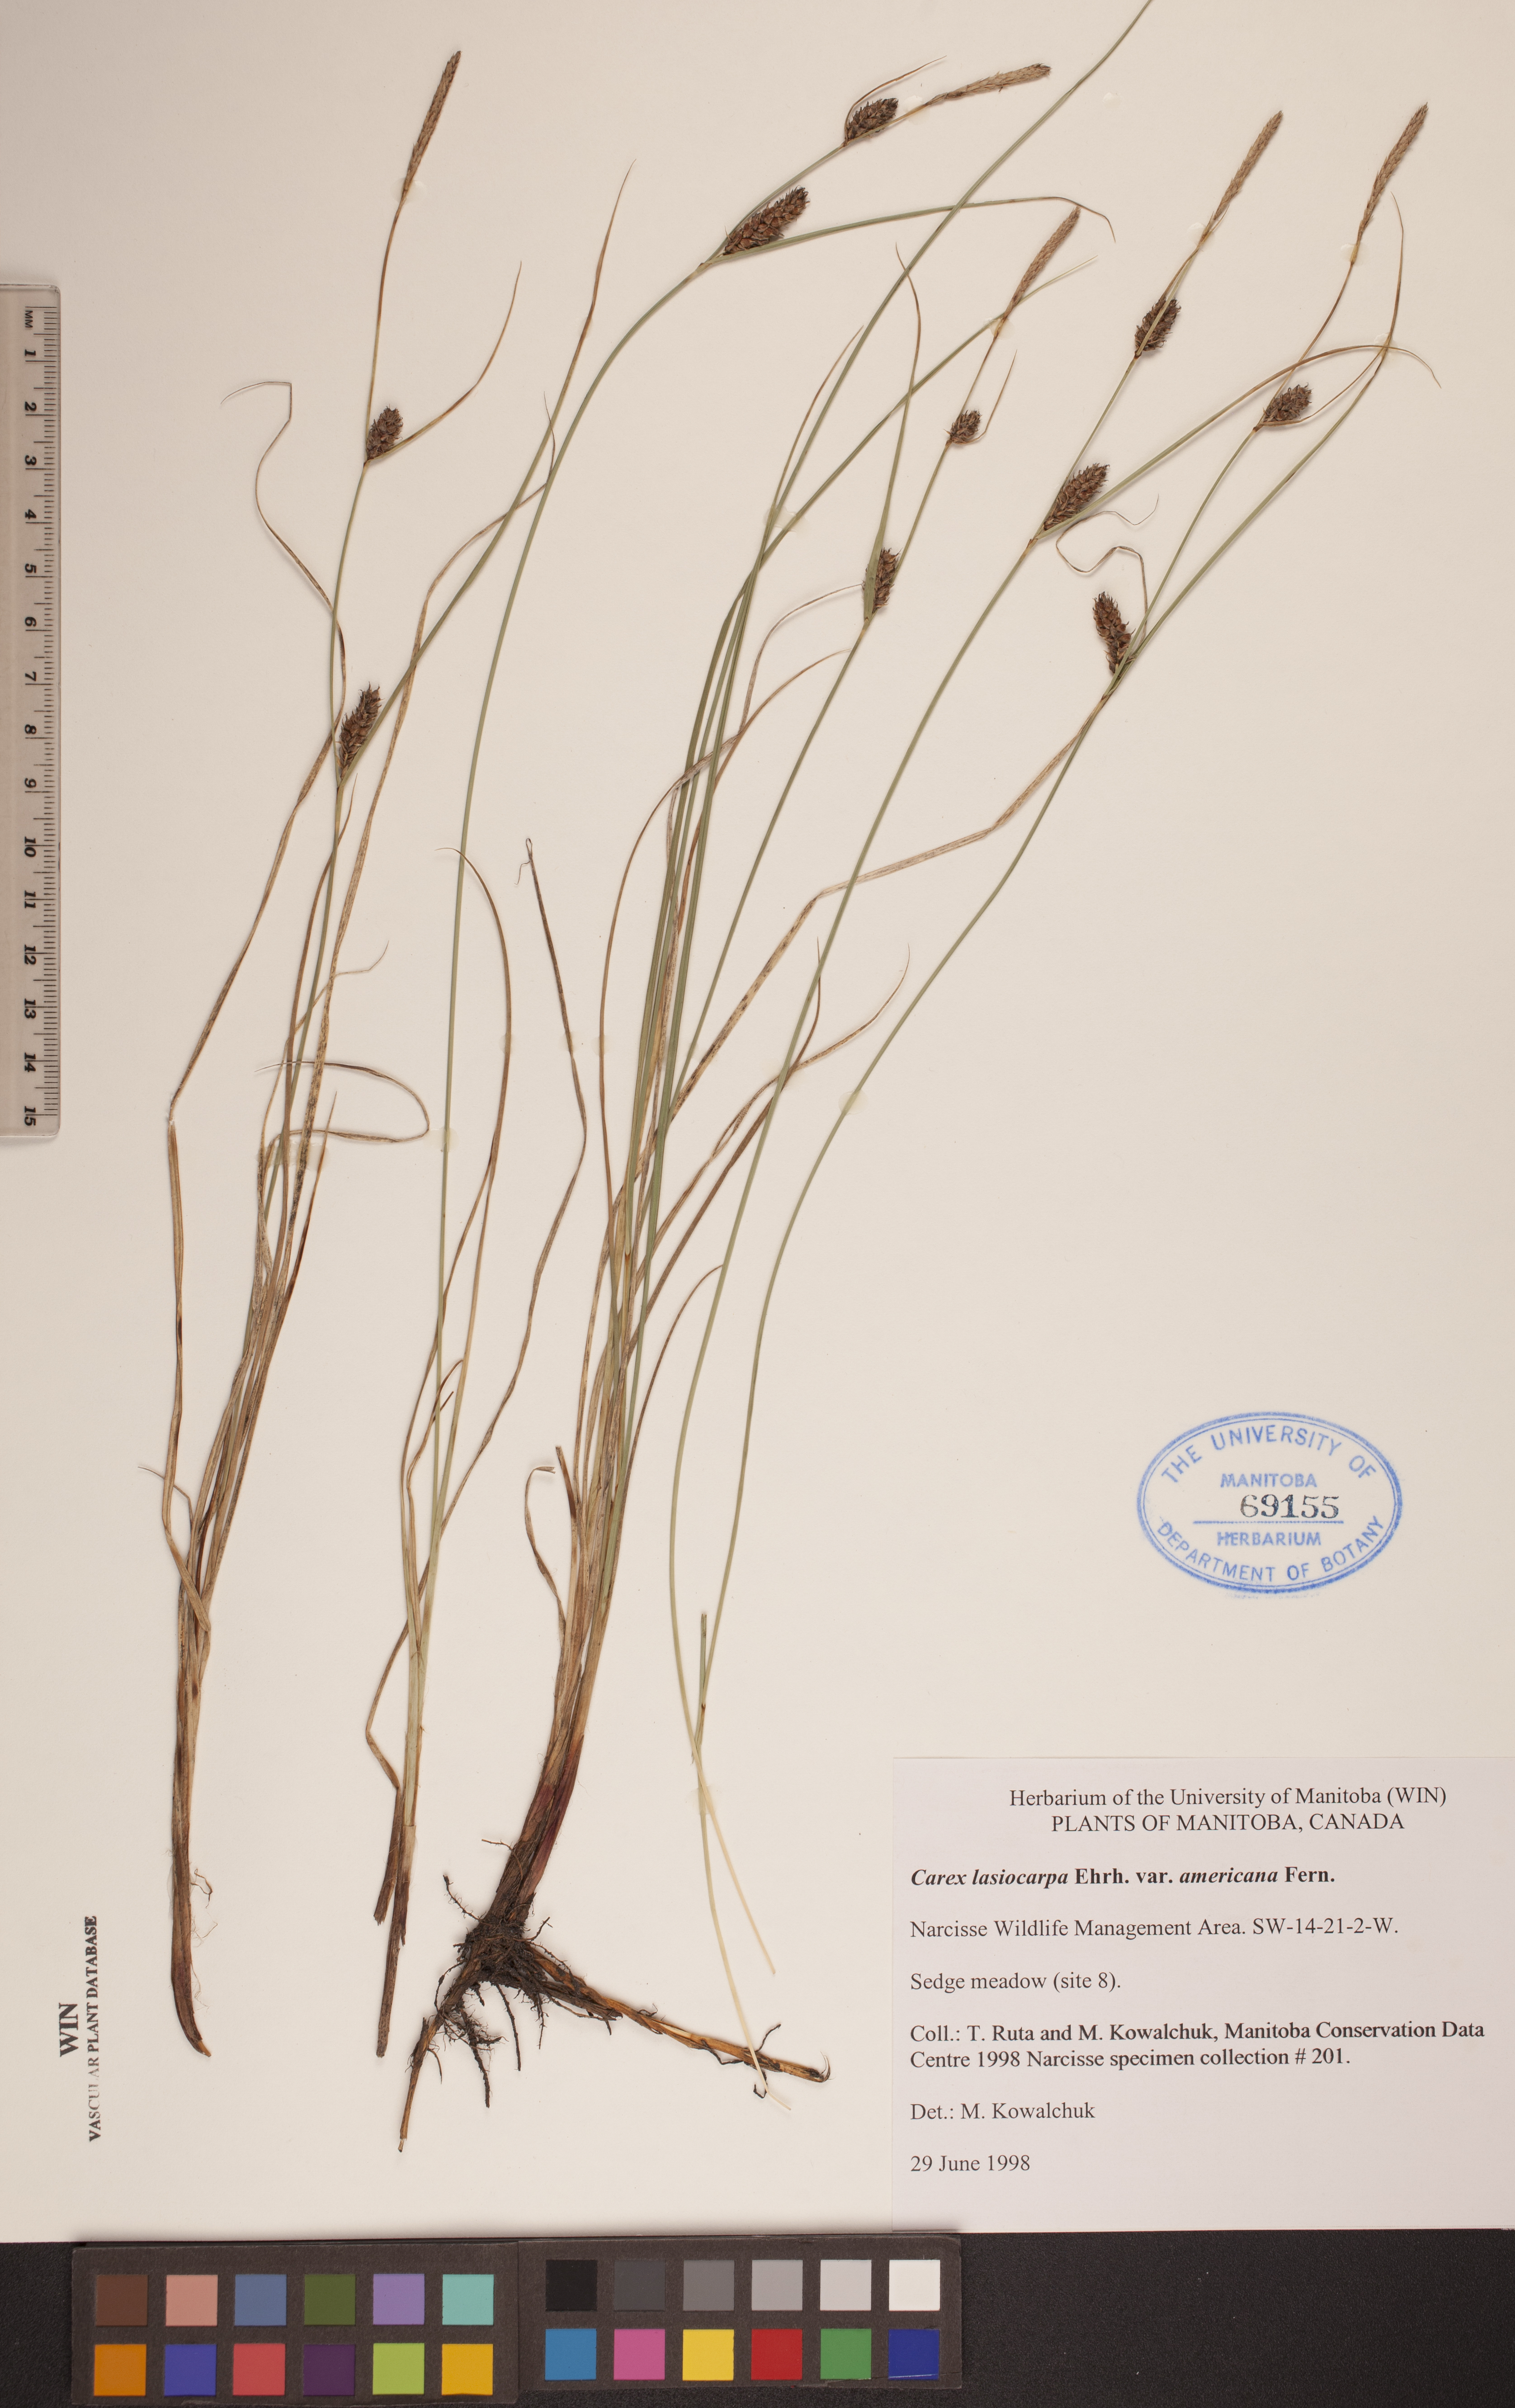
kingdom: Plantae
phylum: Tracheophyta
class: Liliopsida
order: Poales
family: Cyperaceae
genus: Carex
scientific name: Carex lasiocarpa
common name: Slender sedge
